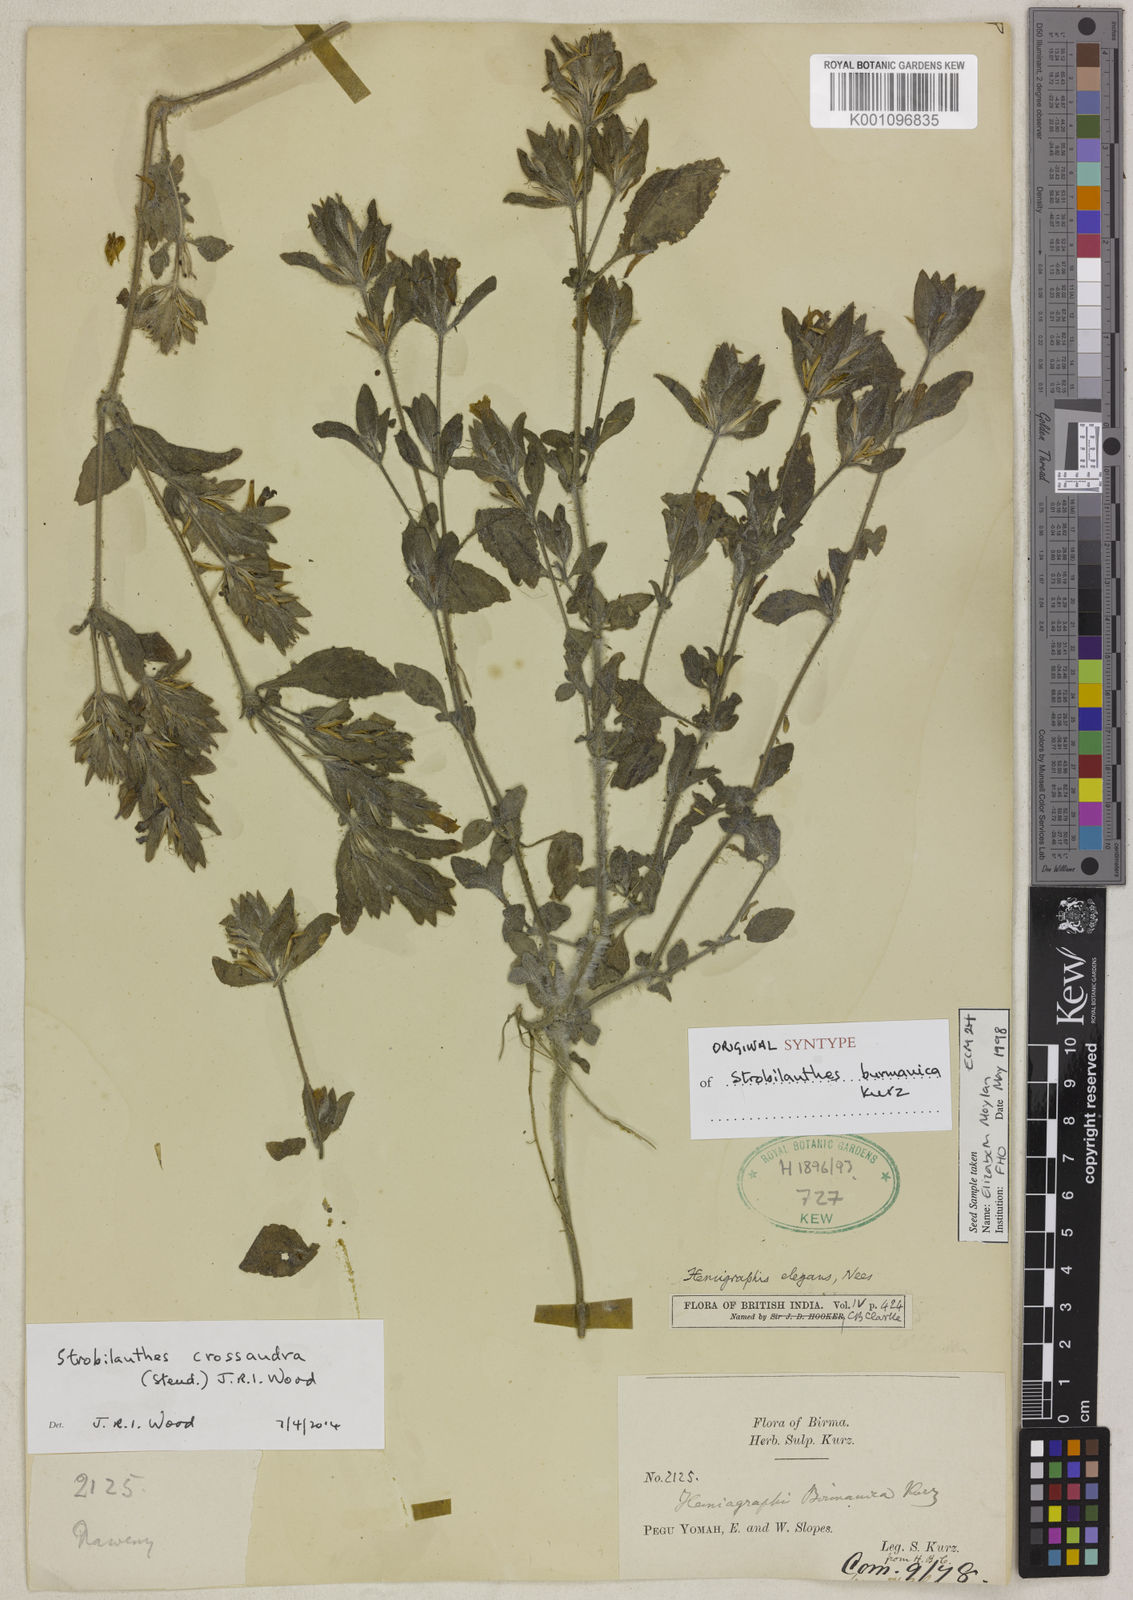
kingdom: Plantae
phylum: Tracheophyta
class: Magnoliopsida
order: Lamiales
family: Acanthaceae
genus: Strobilanthes
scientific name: Strobilanthes crossandra
